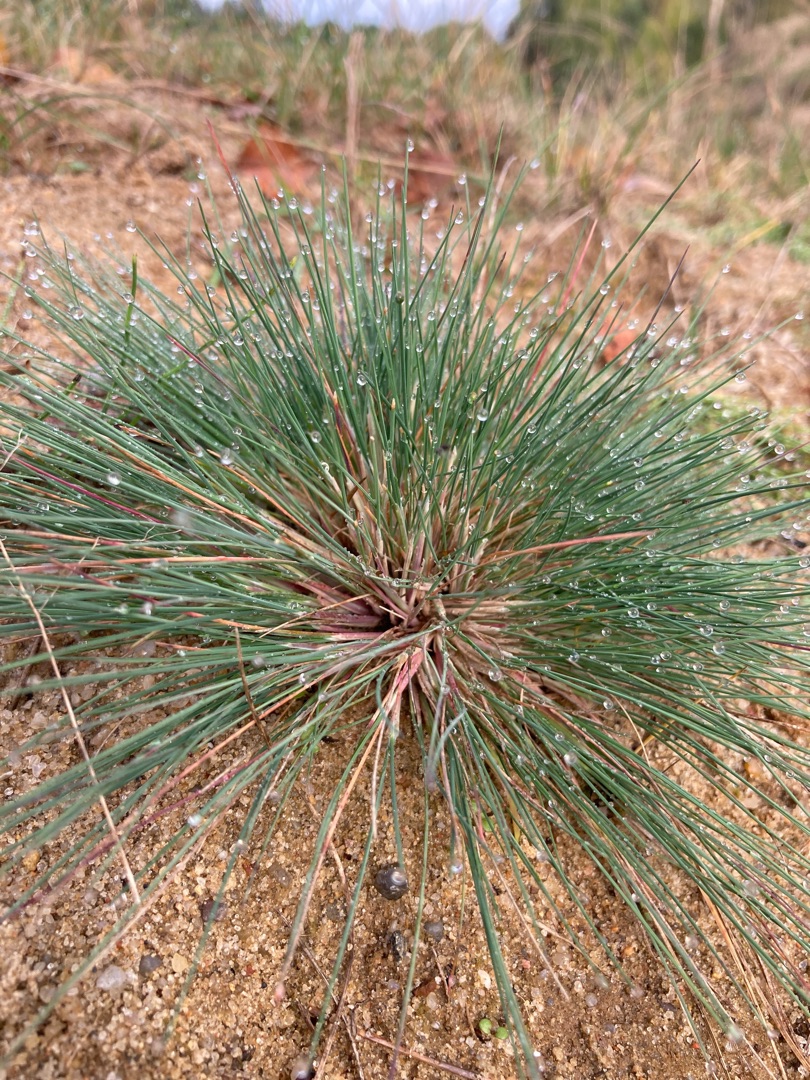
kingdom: Plantae
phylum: Tracheophyta
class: Liliopsida
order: Poales
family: Poaceae
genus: Corynephorus
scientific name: Corynephorus canescens
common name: Sandskæg
